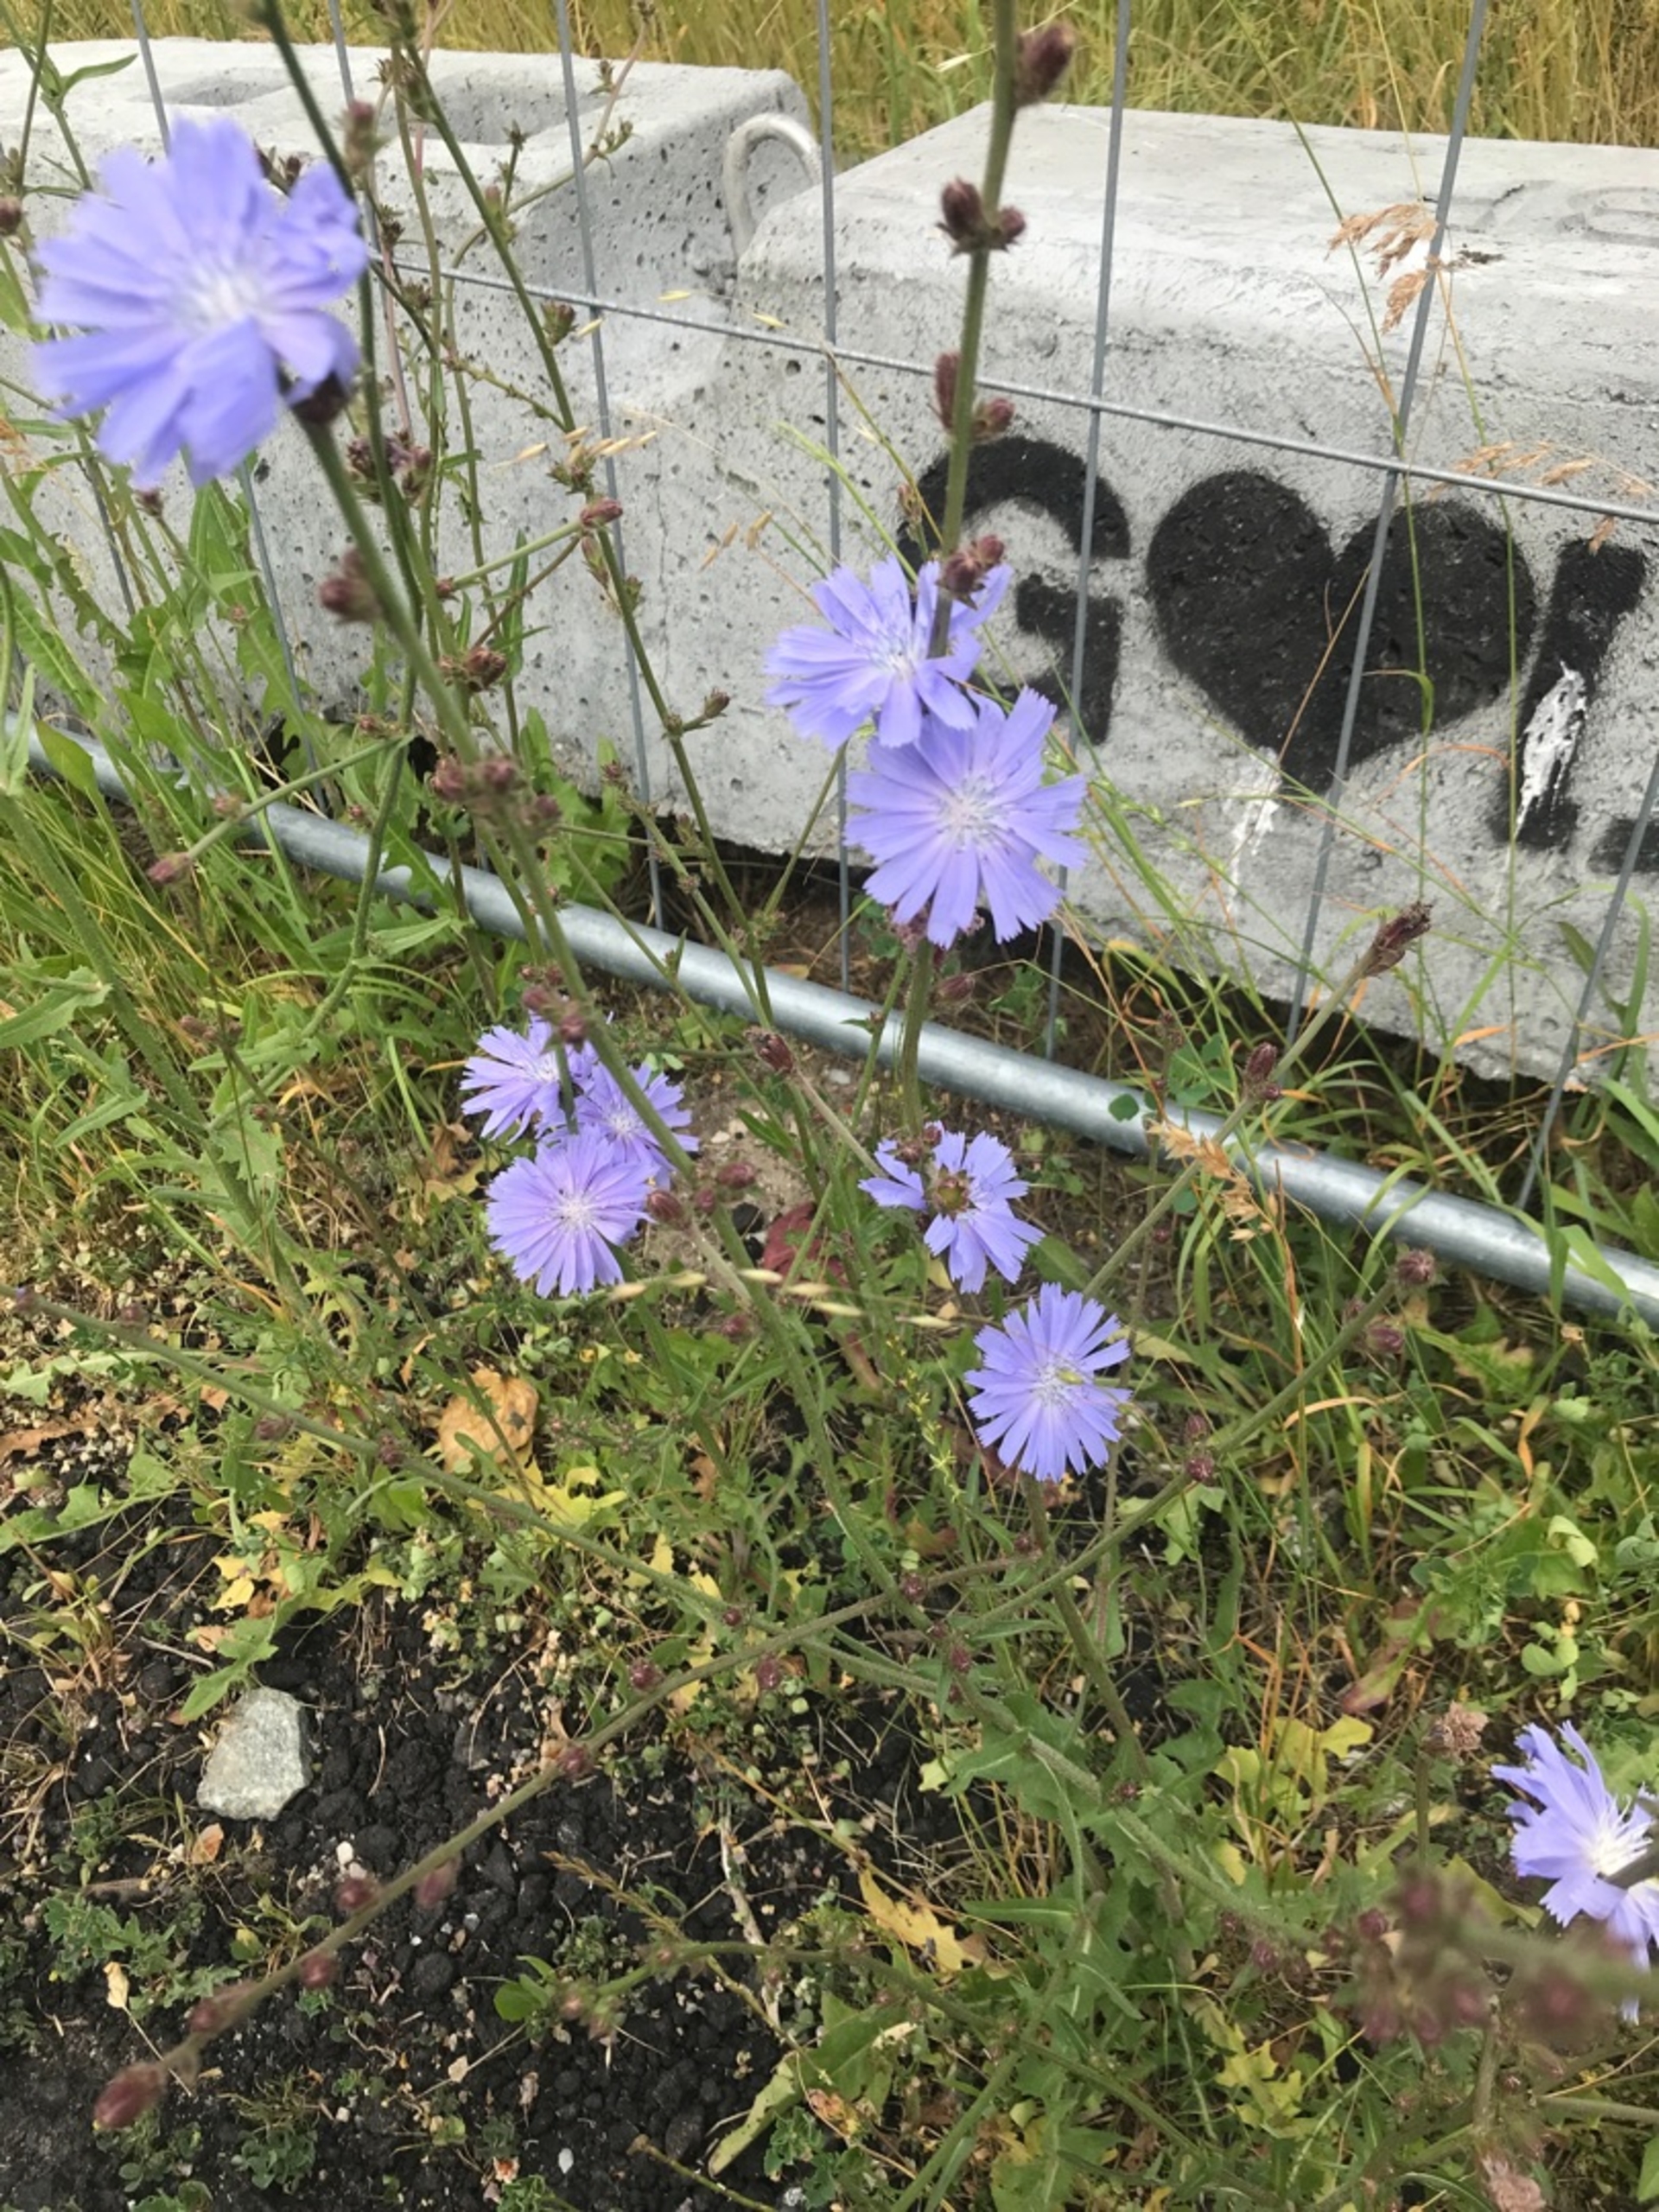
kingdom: Plantae
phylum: Tracheophyta
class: Magnoliopsida
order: Asterales
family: Asteraceae
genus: Cichorium
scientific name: Cichorium intybus
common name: Cikorie
